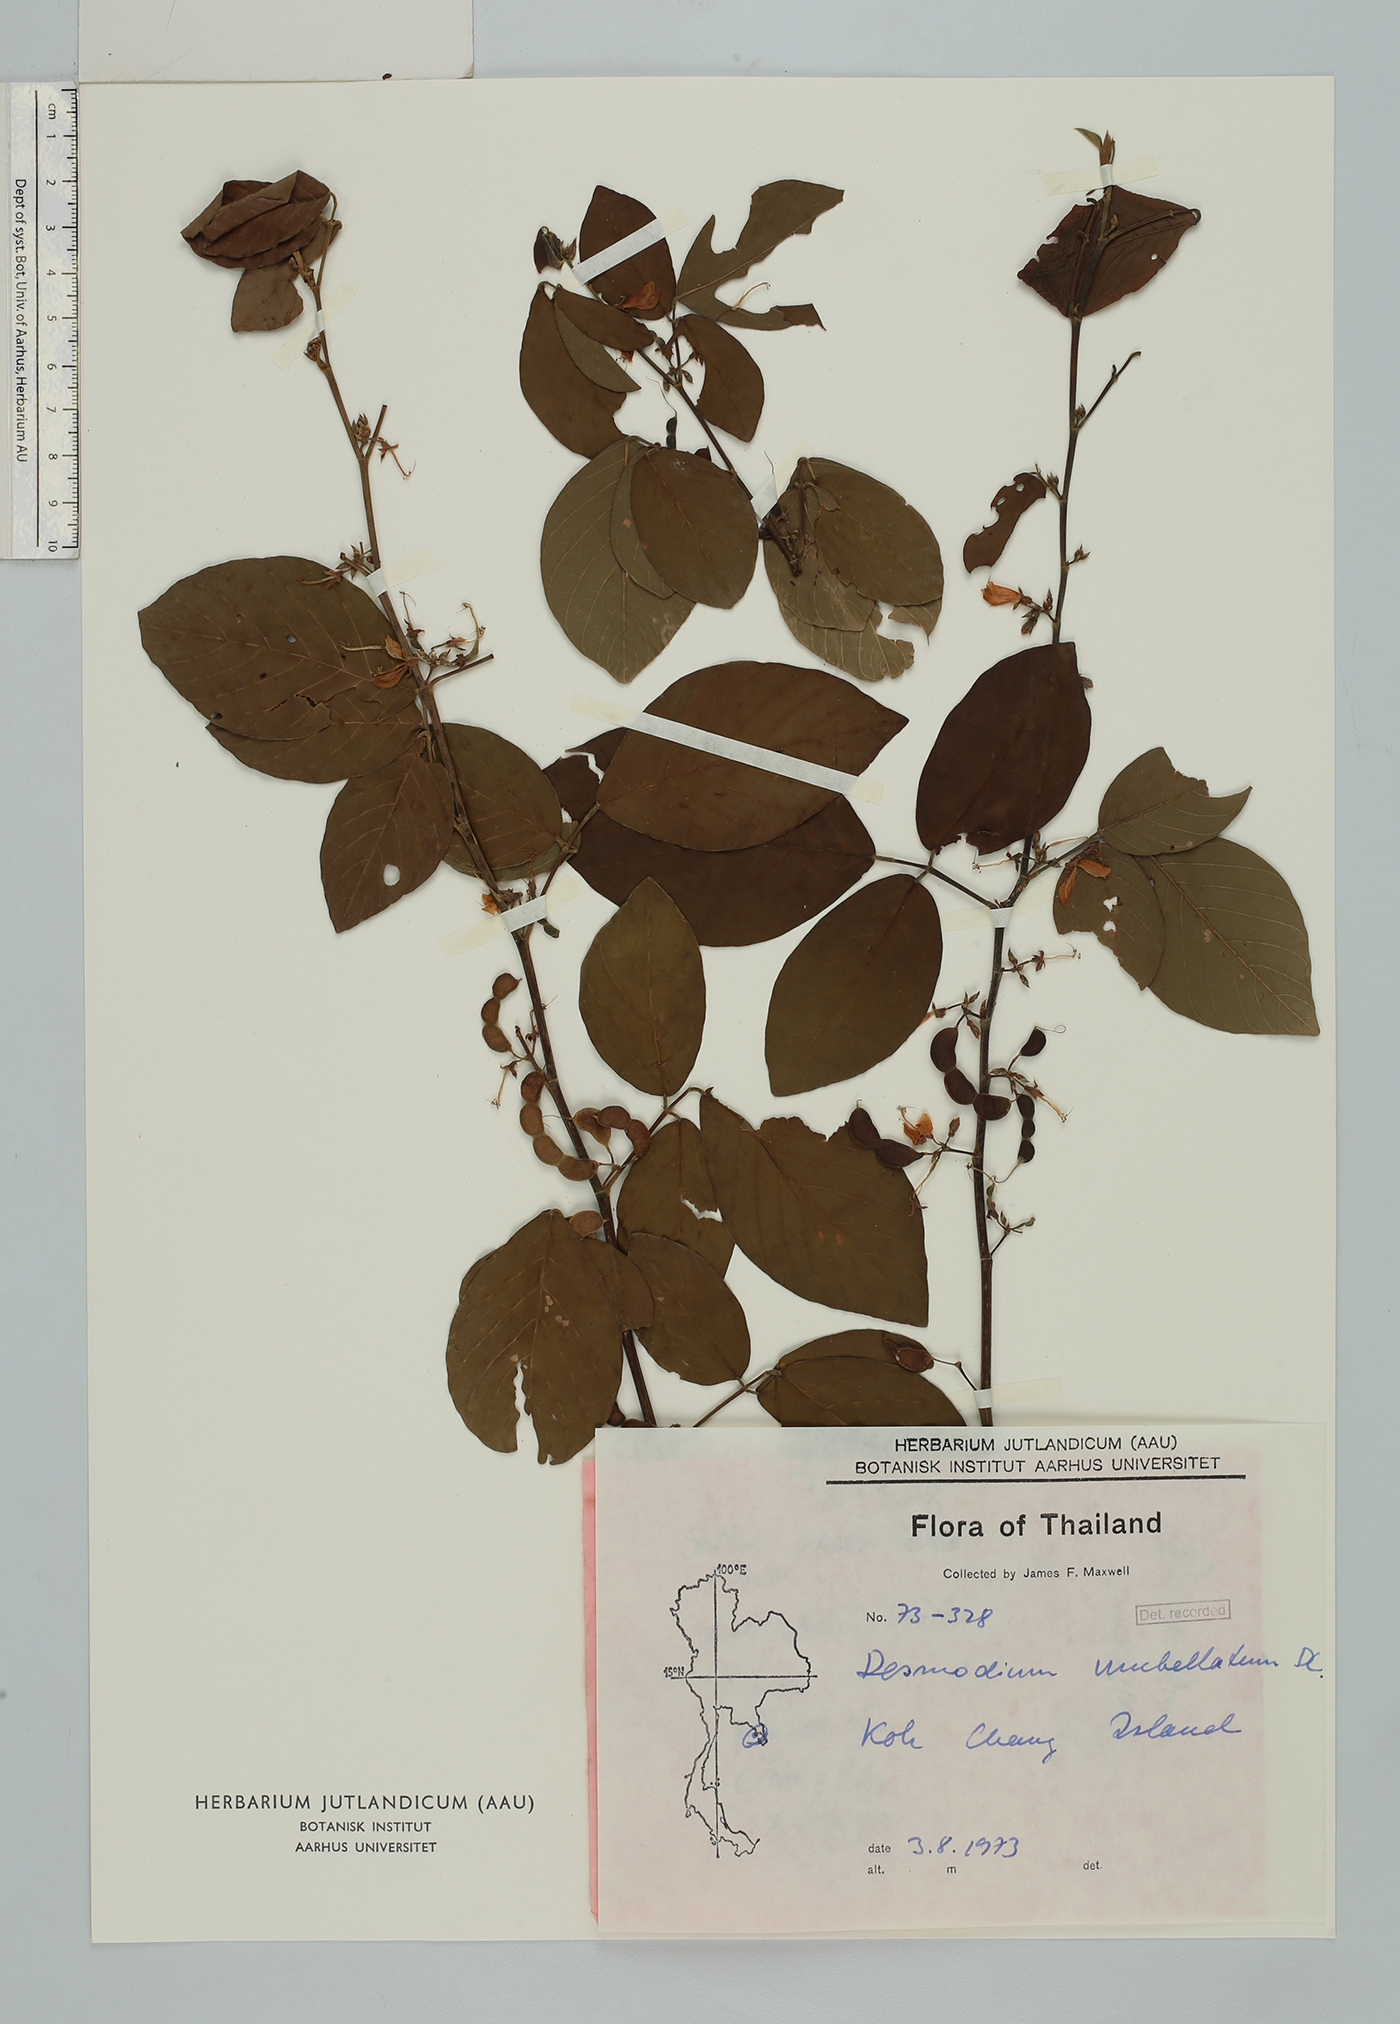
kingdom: Plantae
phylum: Tracheophyta
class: Magnoliopsida
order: Fabales
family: Fabaceae
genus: Dendrolobium
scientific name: Dendrolobium umbellatum
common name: Horsebush
